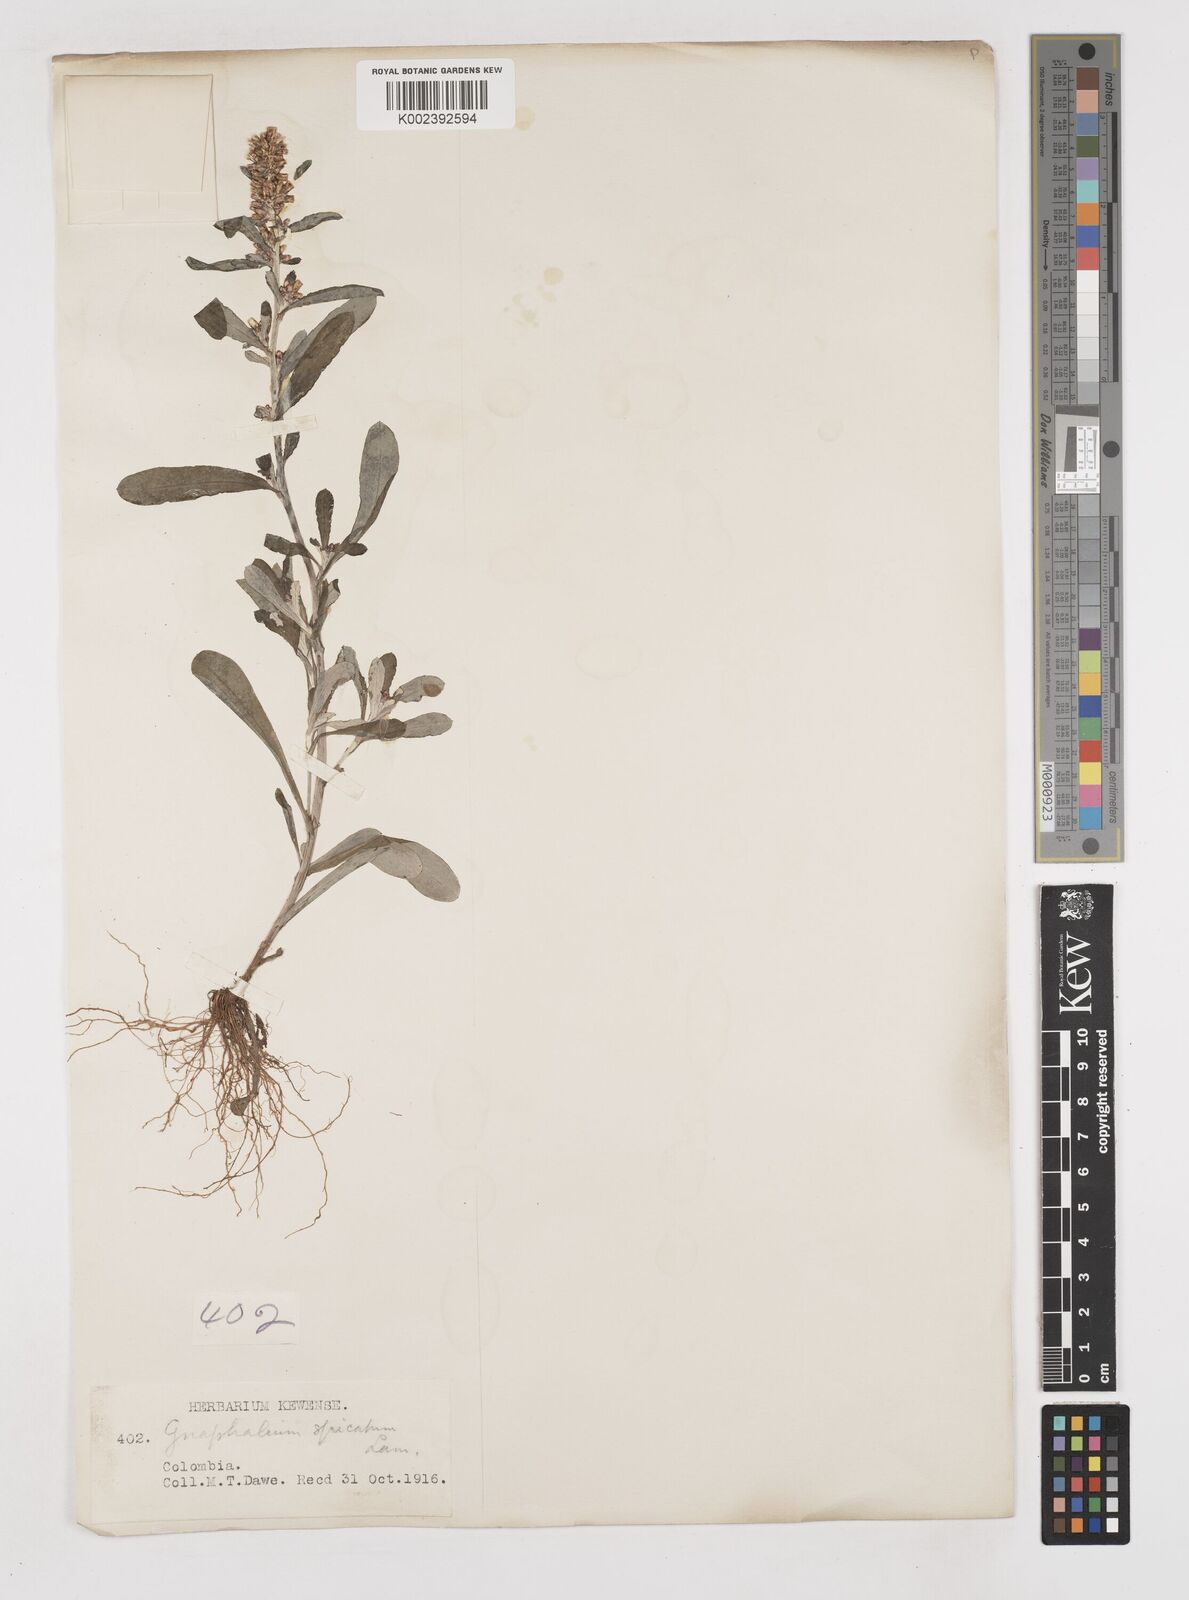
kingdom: Plantae
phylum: Tracheophyta
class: Magnoliopsida
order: Asterales
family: Asteraceae
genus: Gamochaeta
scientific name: Gamochaeta americana
